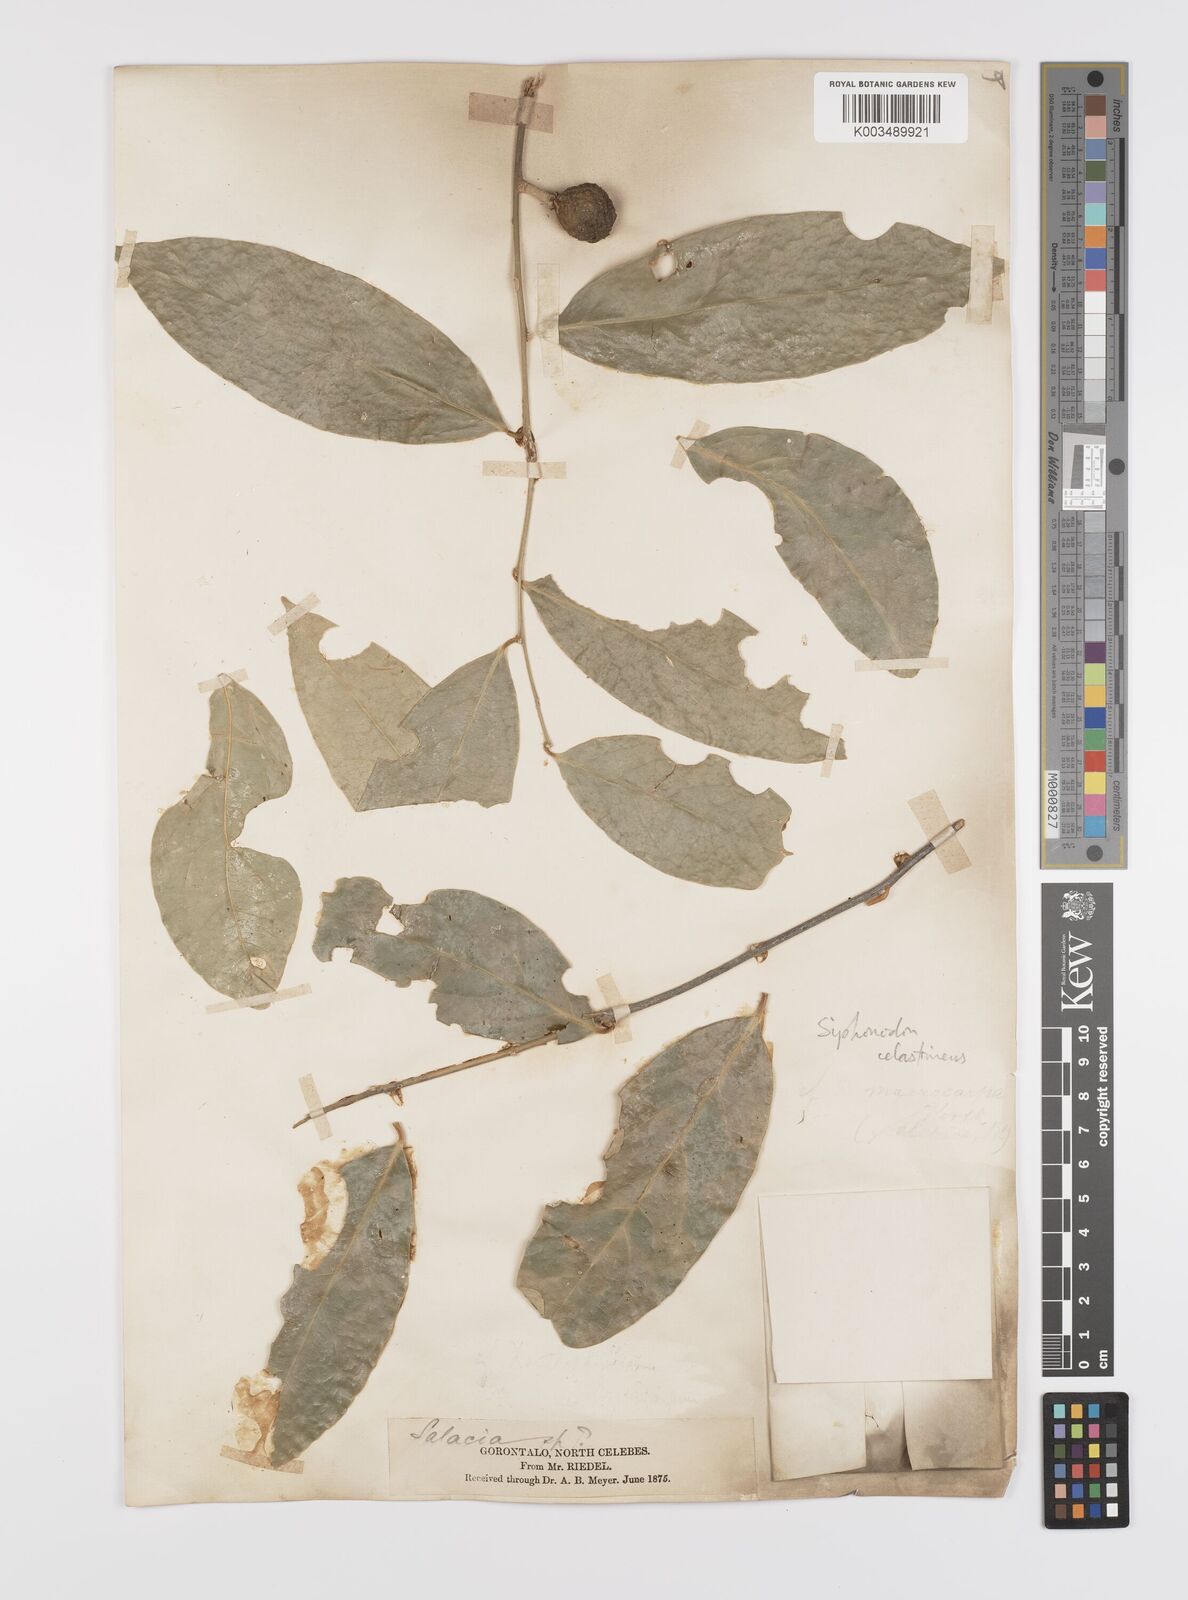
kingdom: Plantae
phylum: Tracheophyta
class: Magnoliopsida
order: Celastrales
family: Celastraceae
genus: Siphonodon
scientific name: Siphonodon celastrineus
